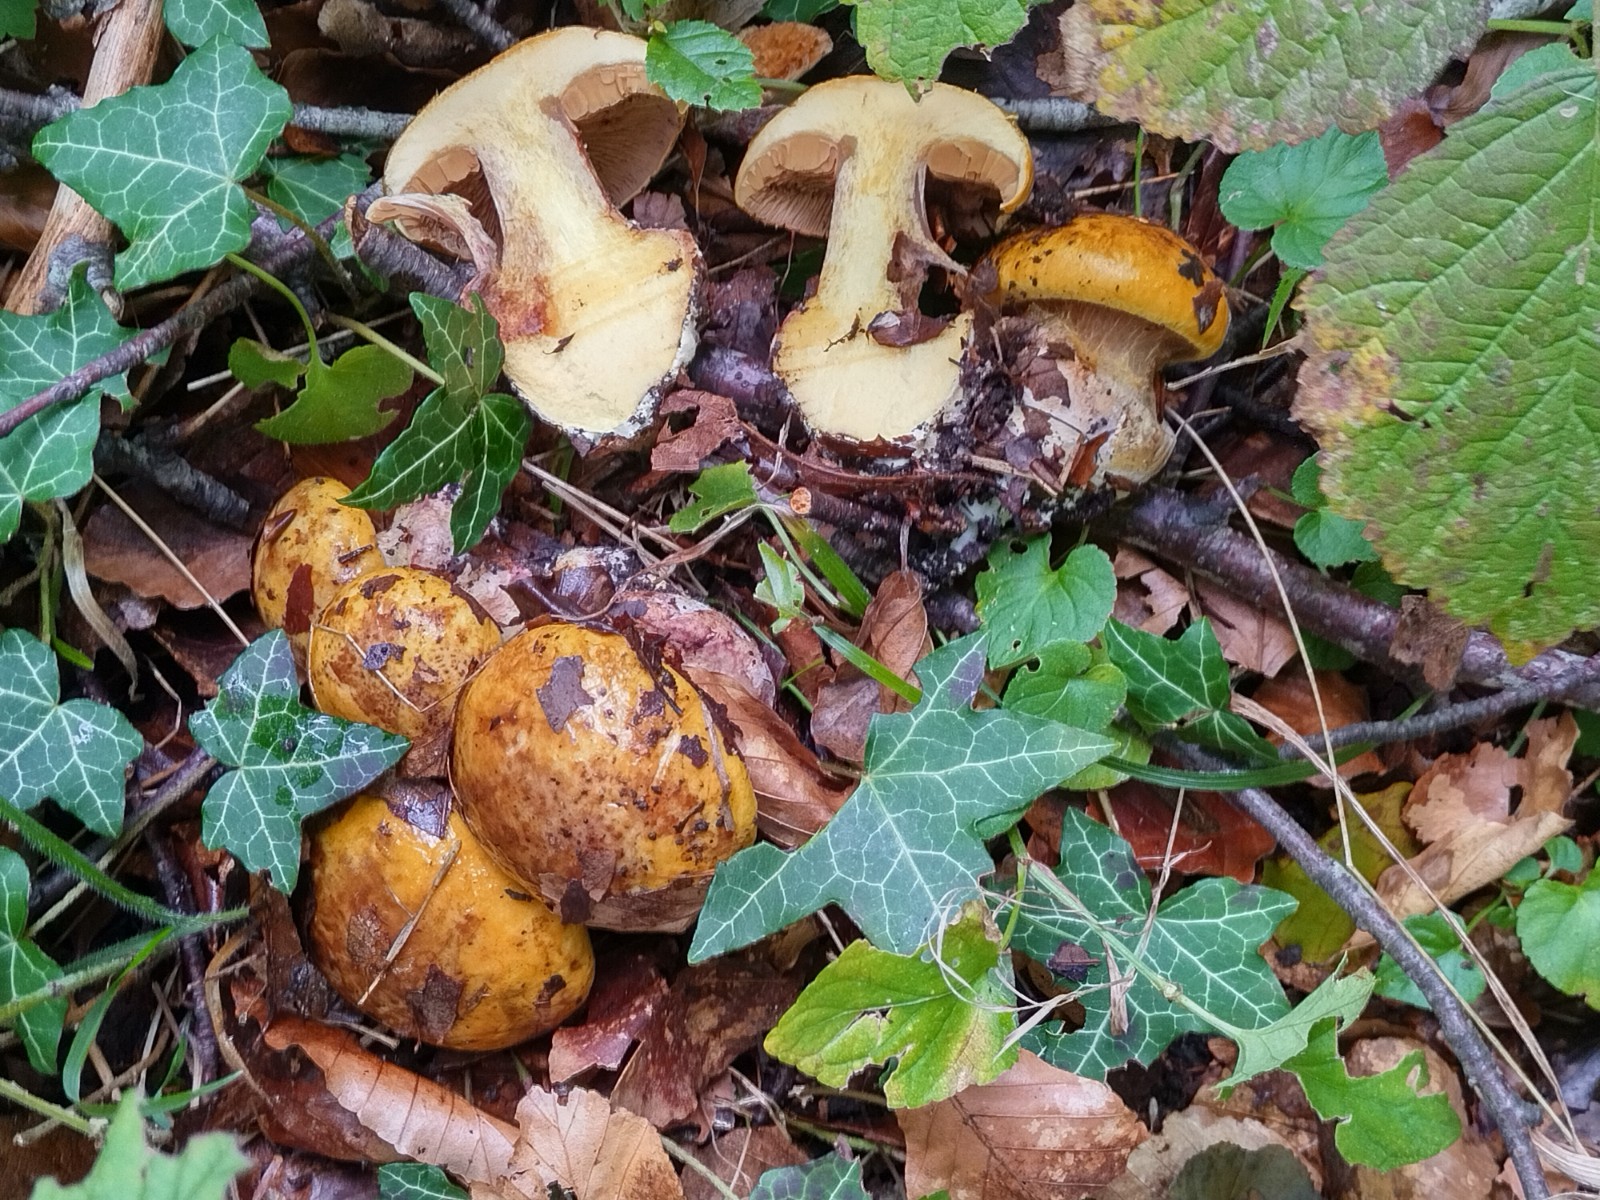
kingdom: Fungi
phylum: Basidiomycota
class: Agaricomycetes
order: Agaricales
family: Cortinariaceae
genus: Calonarius
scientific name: Calonarius alcalinophilus
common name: gyldenbrun slørhat
